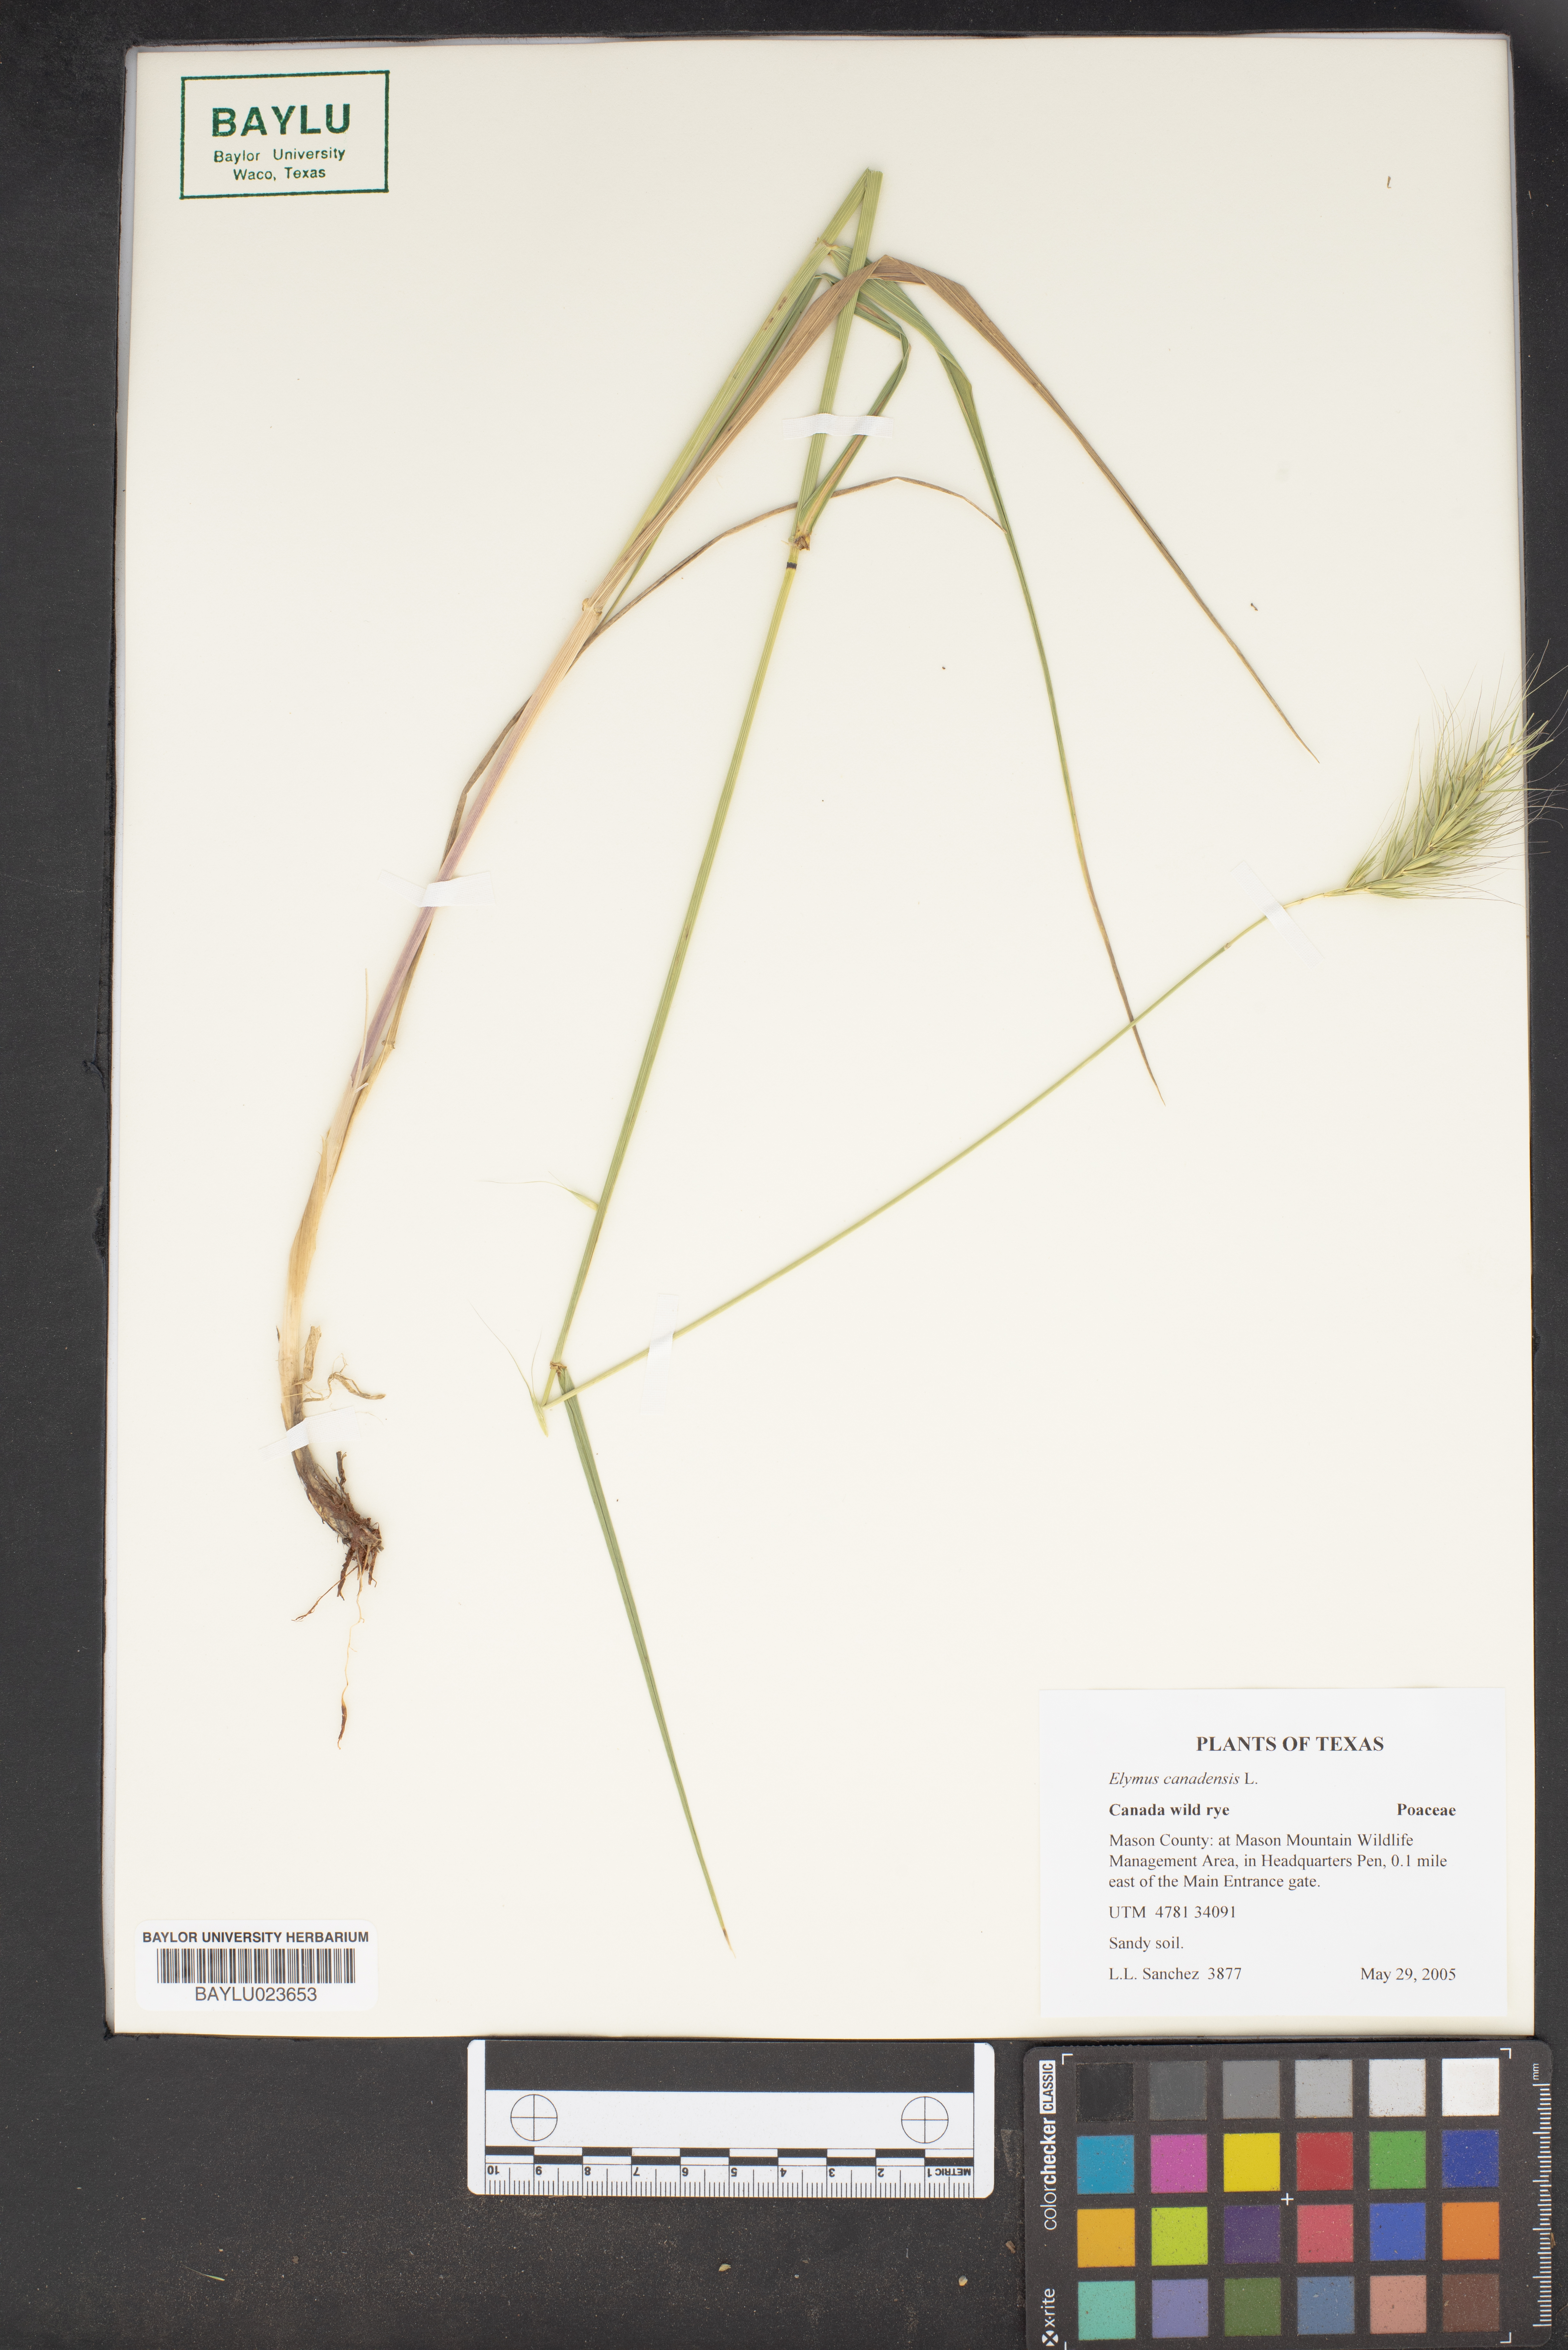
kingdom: Plantae
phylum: Tracheophyta
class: Liliopsida
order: Poales
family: Poaceae
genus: Elymus
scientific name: Elymus canadensis
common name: Canada wild rye
